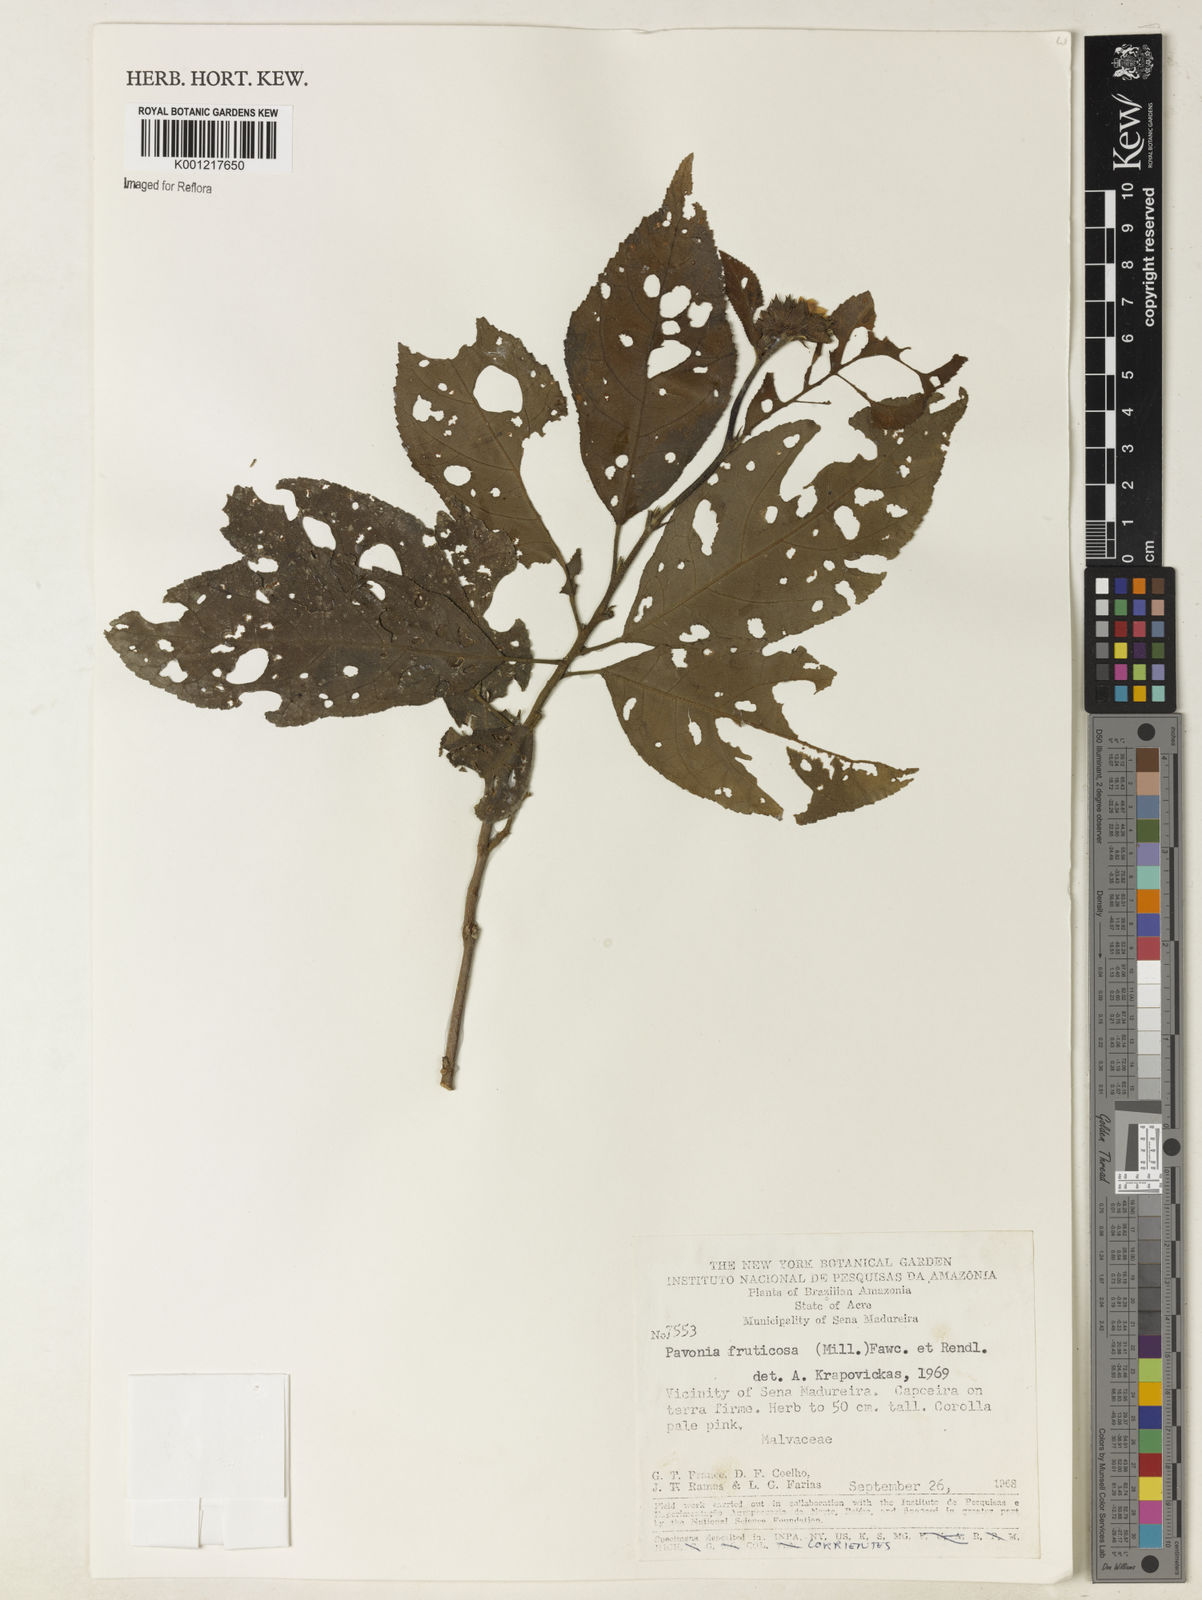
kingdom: Plantae
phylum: Tracheophyta
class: Magnoliopsida
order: Malvales
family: Malvaceae
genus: Pavonia
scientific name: Pavonia fruticosa
